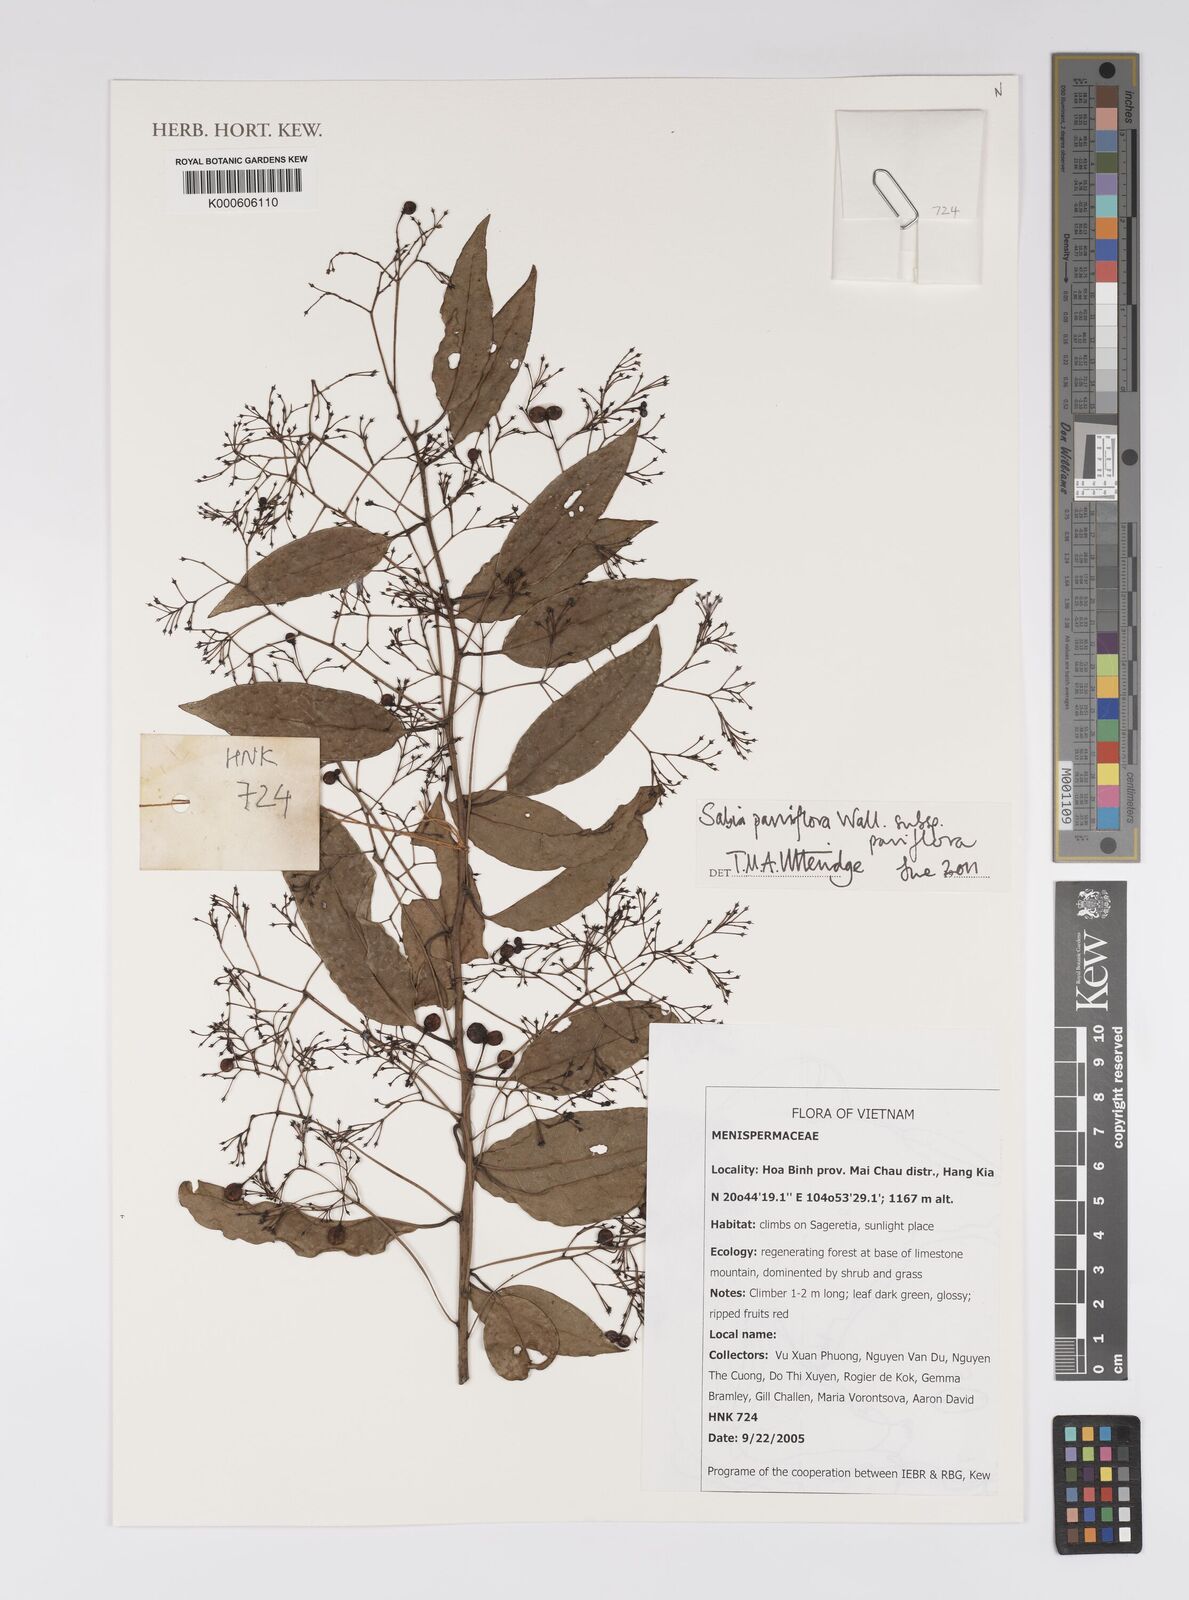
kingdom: Plantae
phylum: Tracheophyta
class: Magnoliopsida
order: Proteales
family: Sabiaceae
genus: Sabia
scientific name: Sabia parviflora
